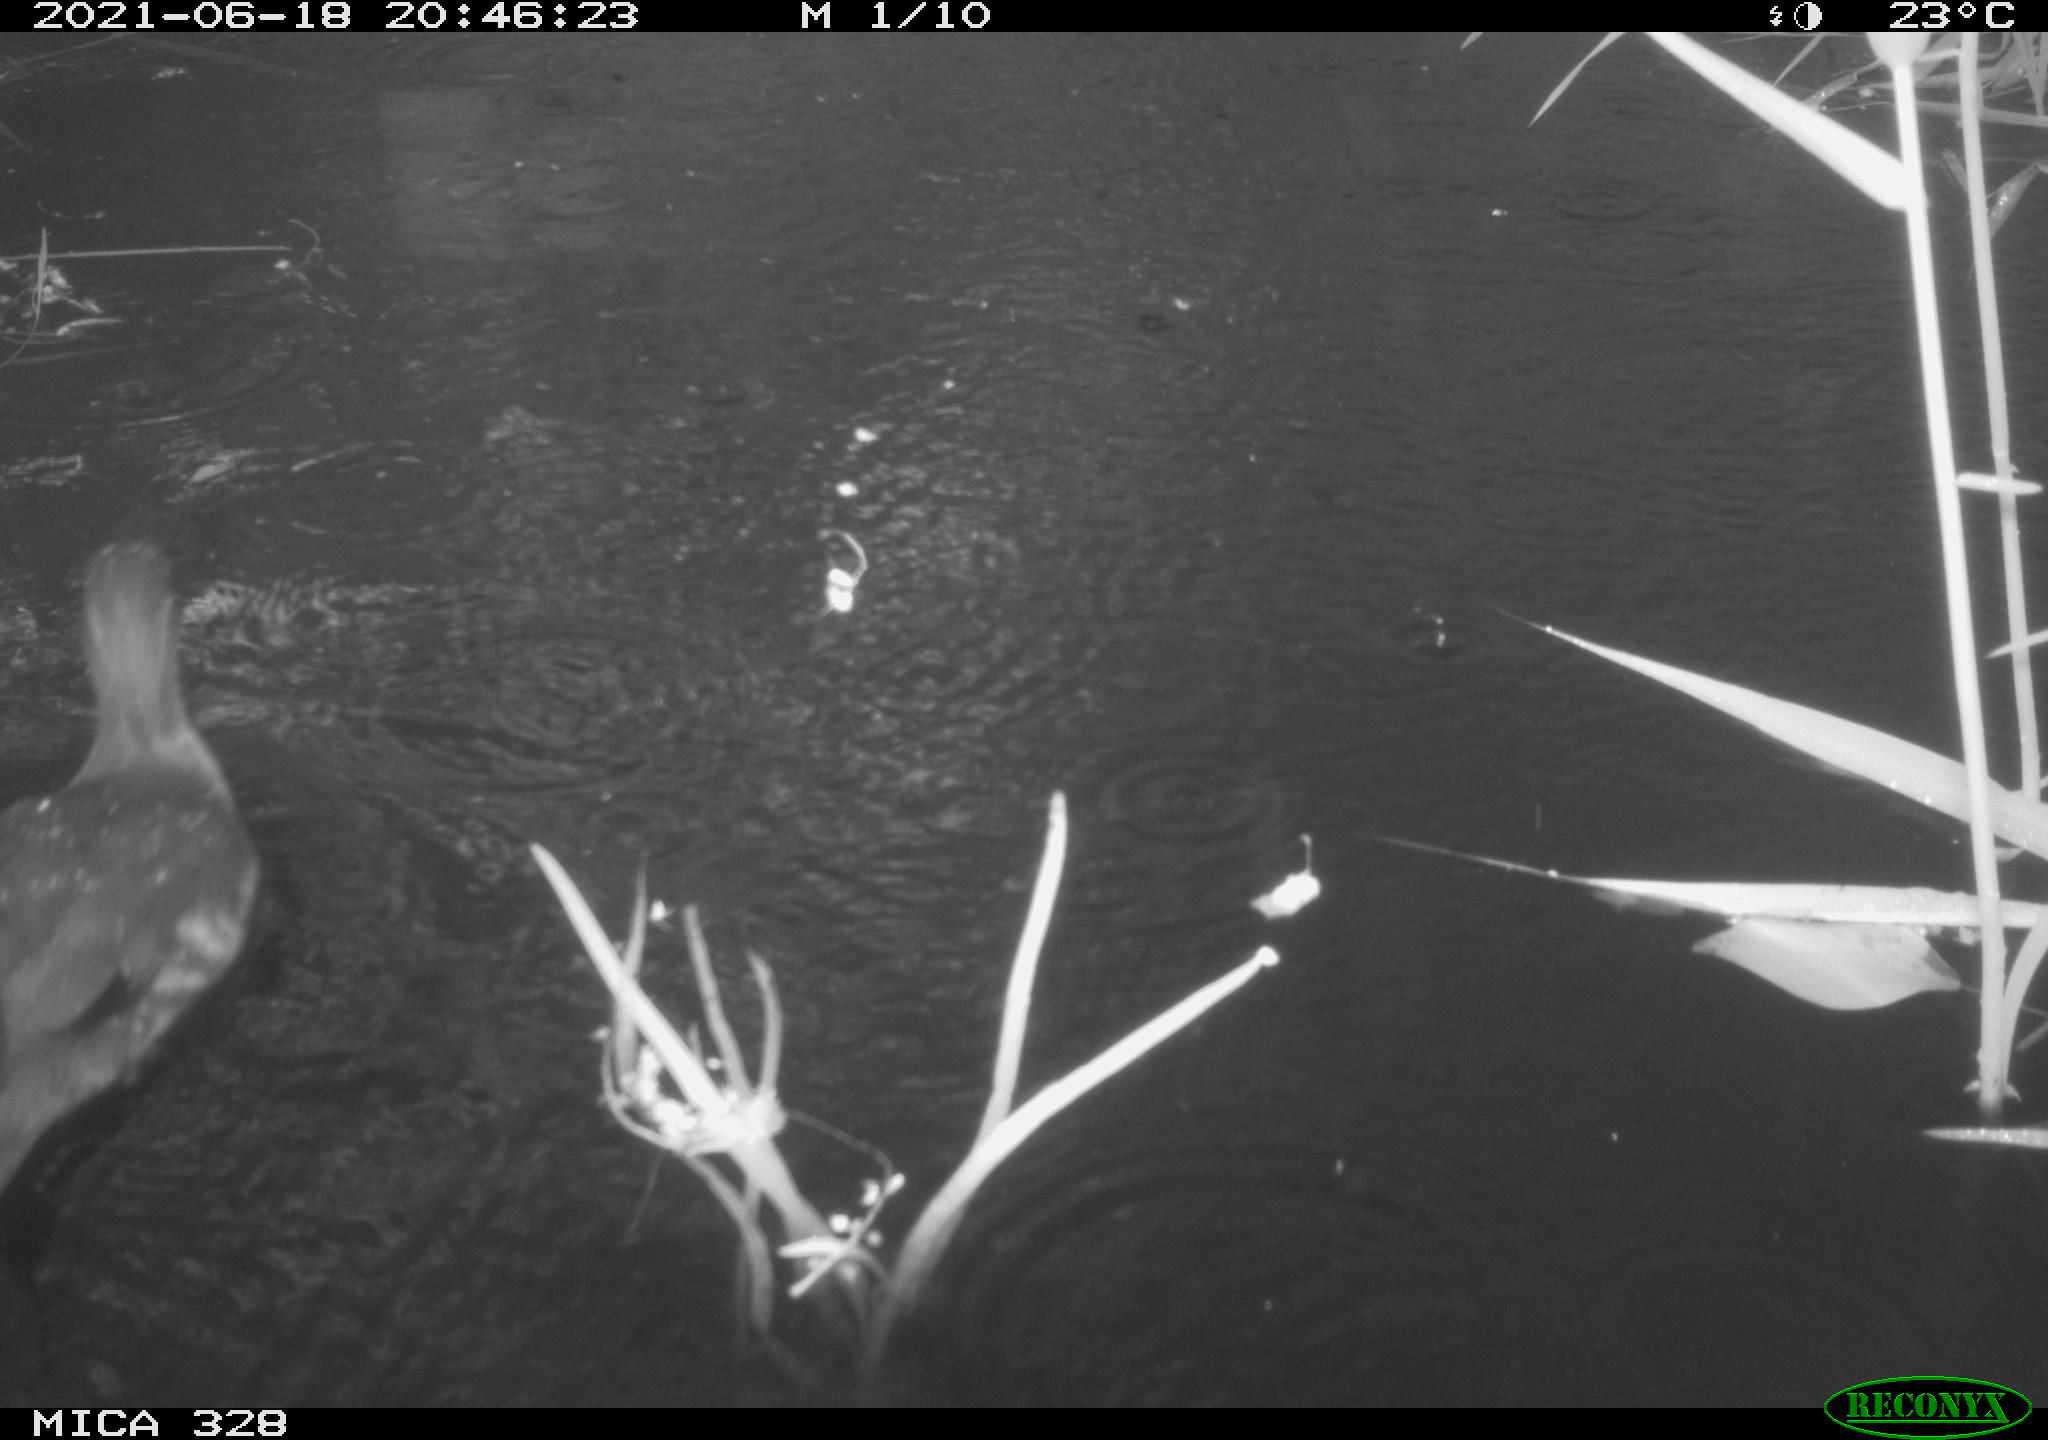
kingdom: Animalia
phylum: Chordata
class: Aves
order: Anseriformes
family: Anatidae
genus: Aix
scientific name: Aix galericulata
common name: Mandarin duck
